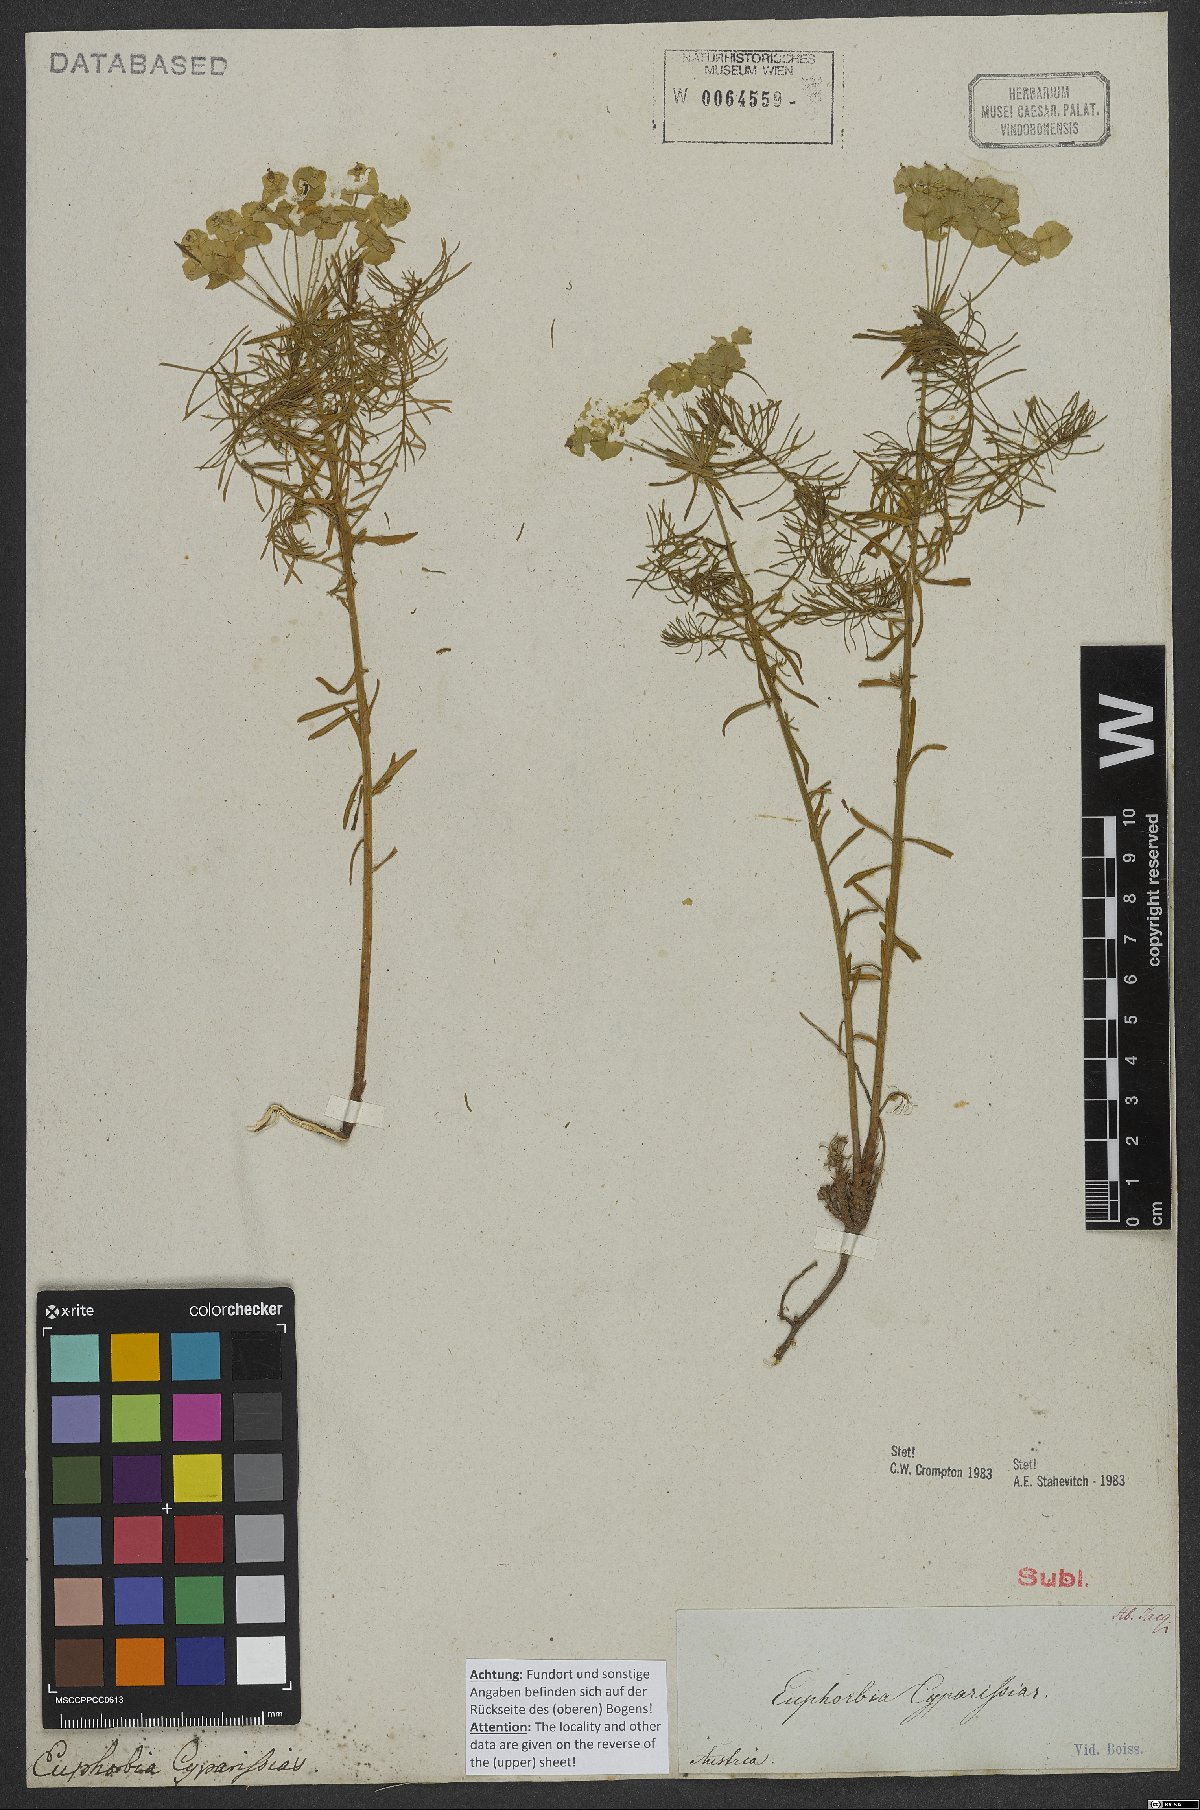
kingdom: Plantae
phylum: Tracheophyta
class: Magnoliopsida
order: Malpighiales
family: Euphorbiaceae
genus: Euphorbia
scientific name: Euphorbia cyparissias
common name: Cypress spurge
